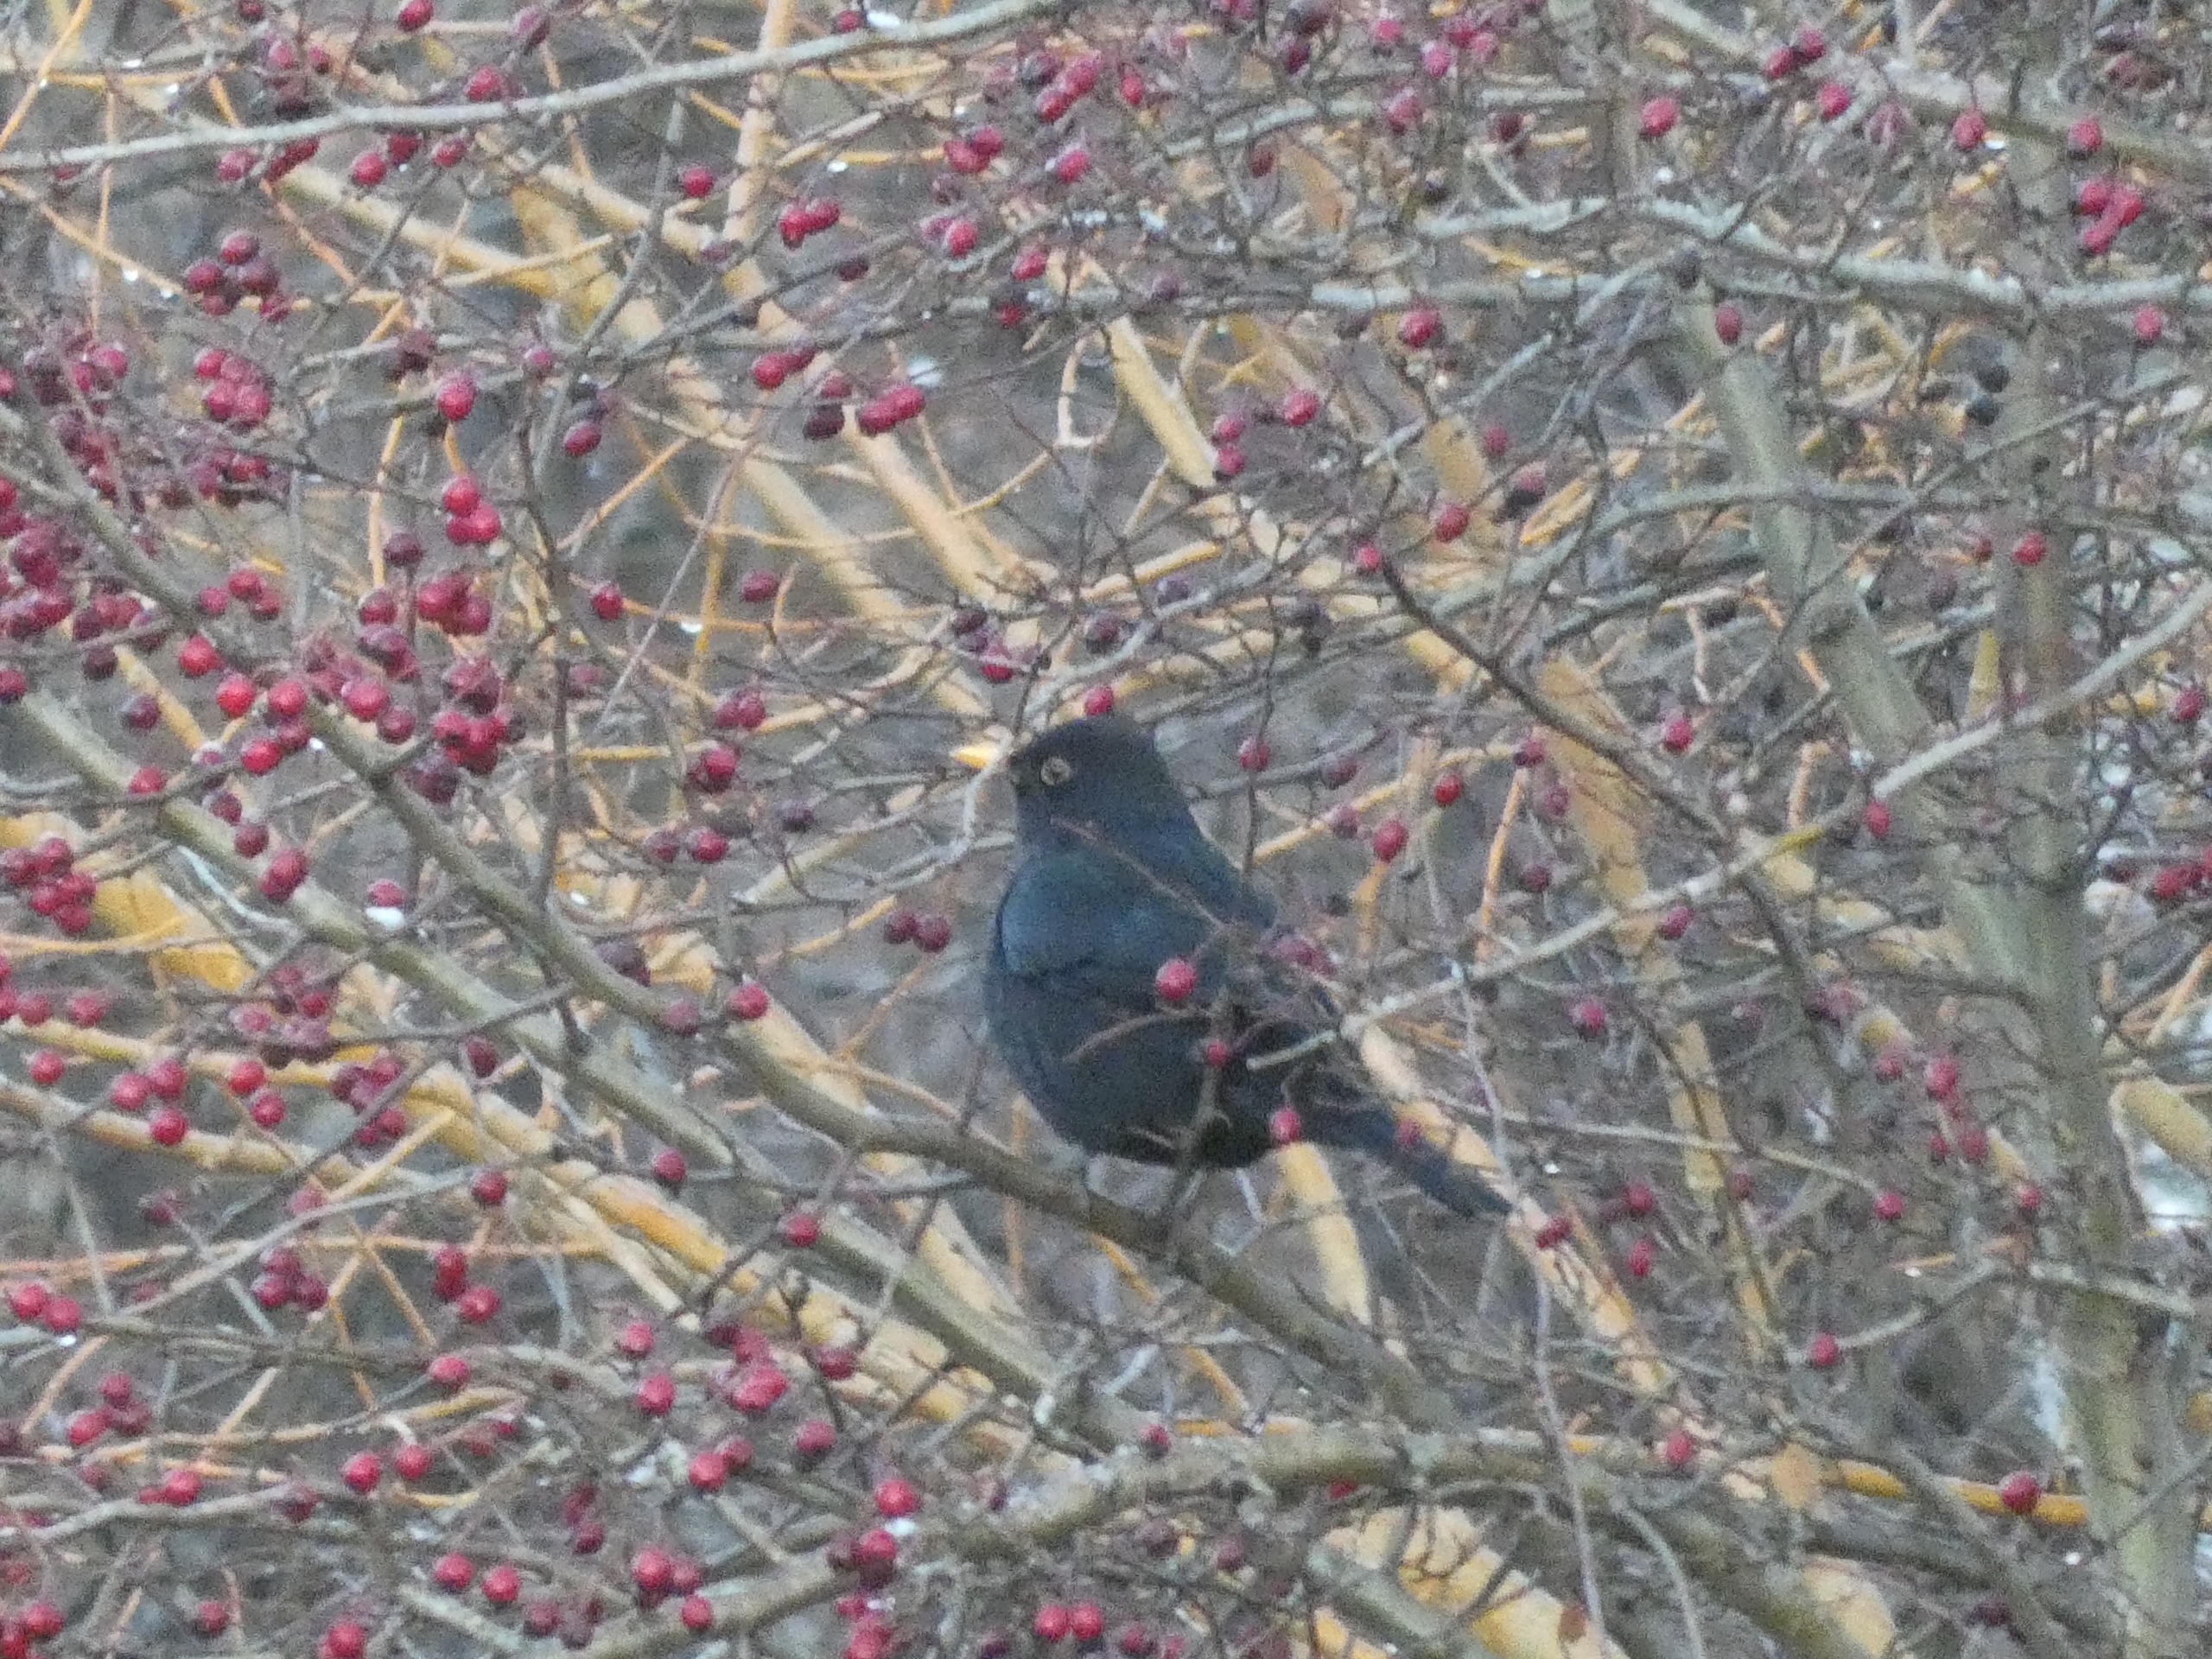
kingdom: Animalia
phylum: Chordata
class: Aves
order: Passeriformes
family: Turdidae
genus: Turdus
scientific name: Turdus merula
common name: Solsort
